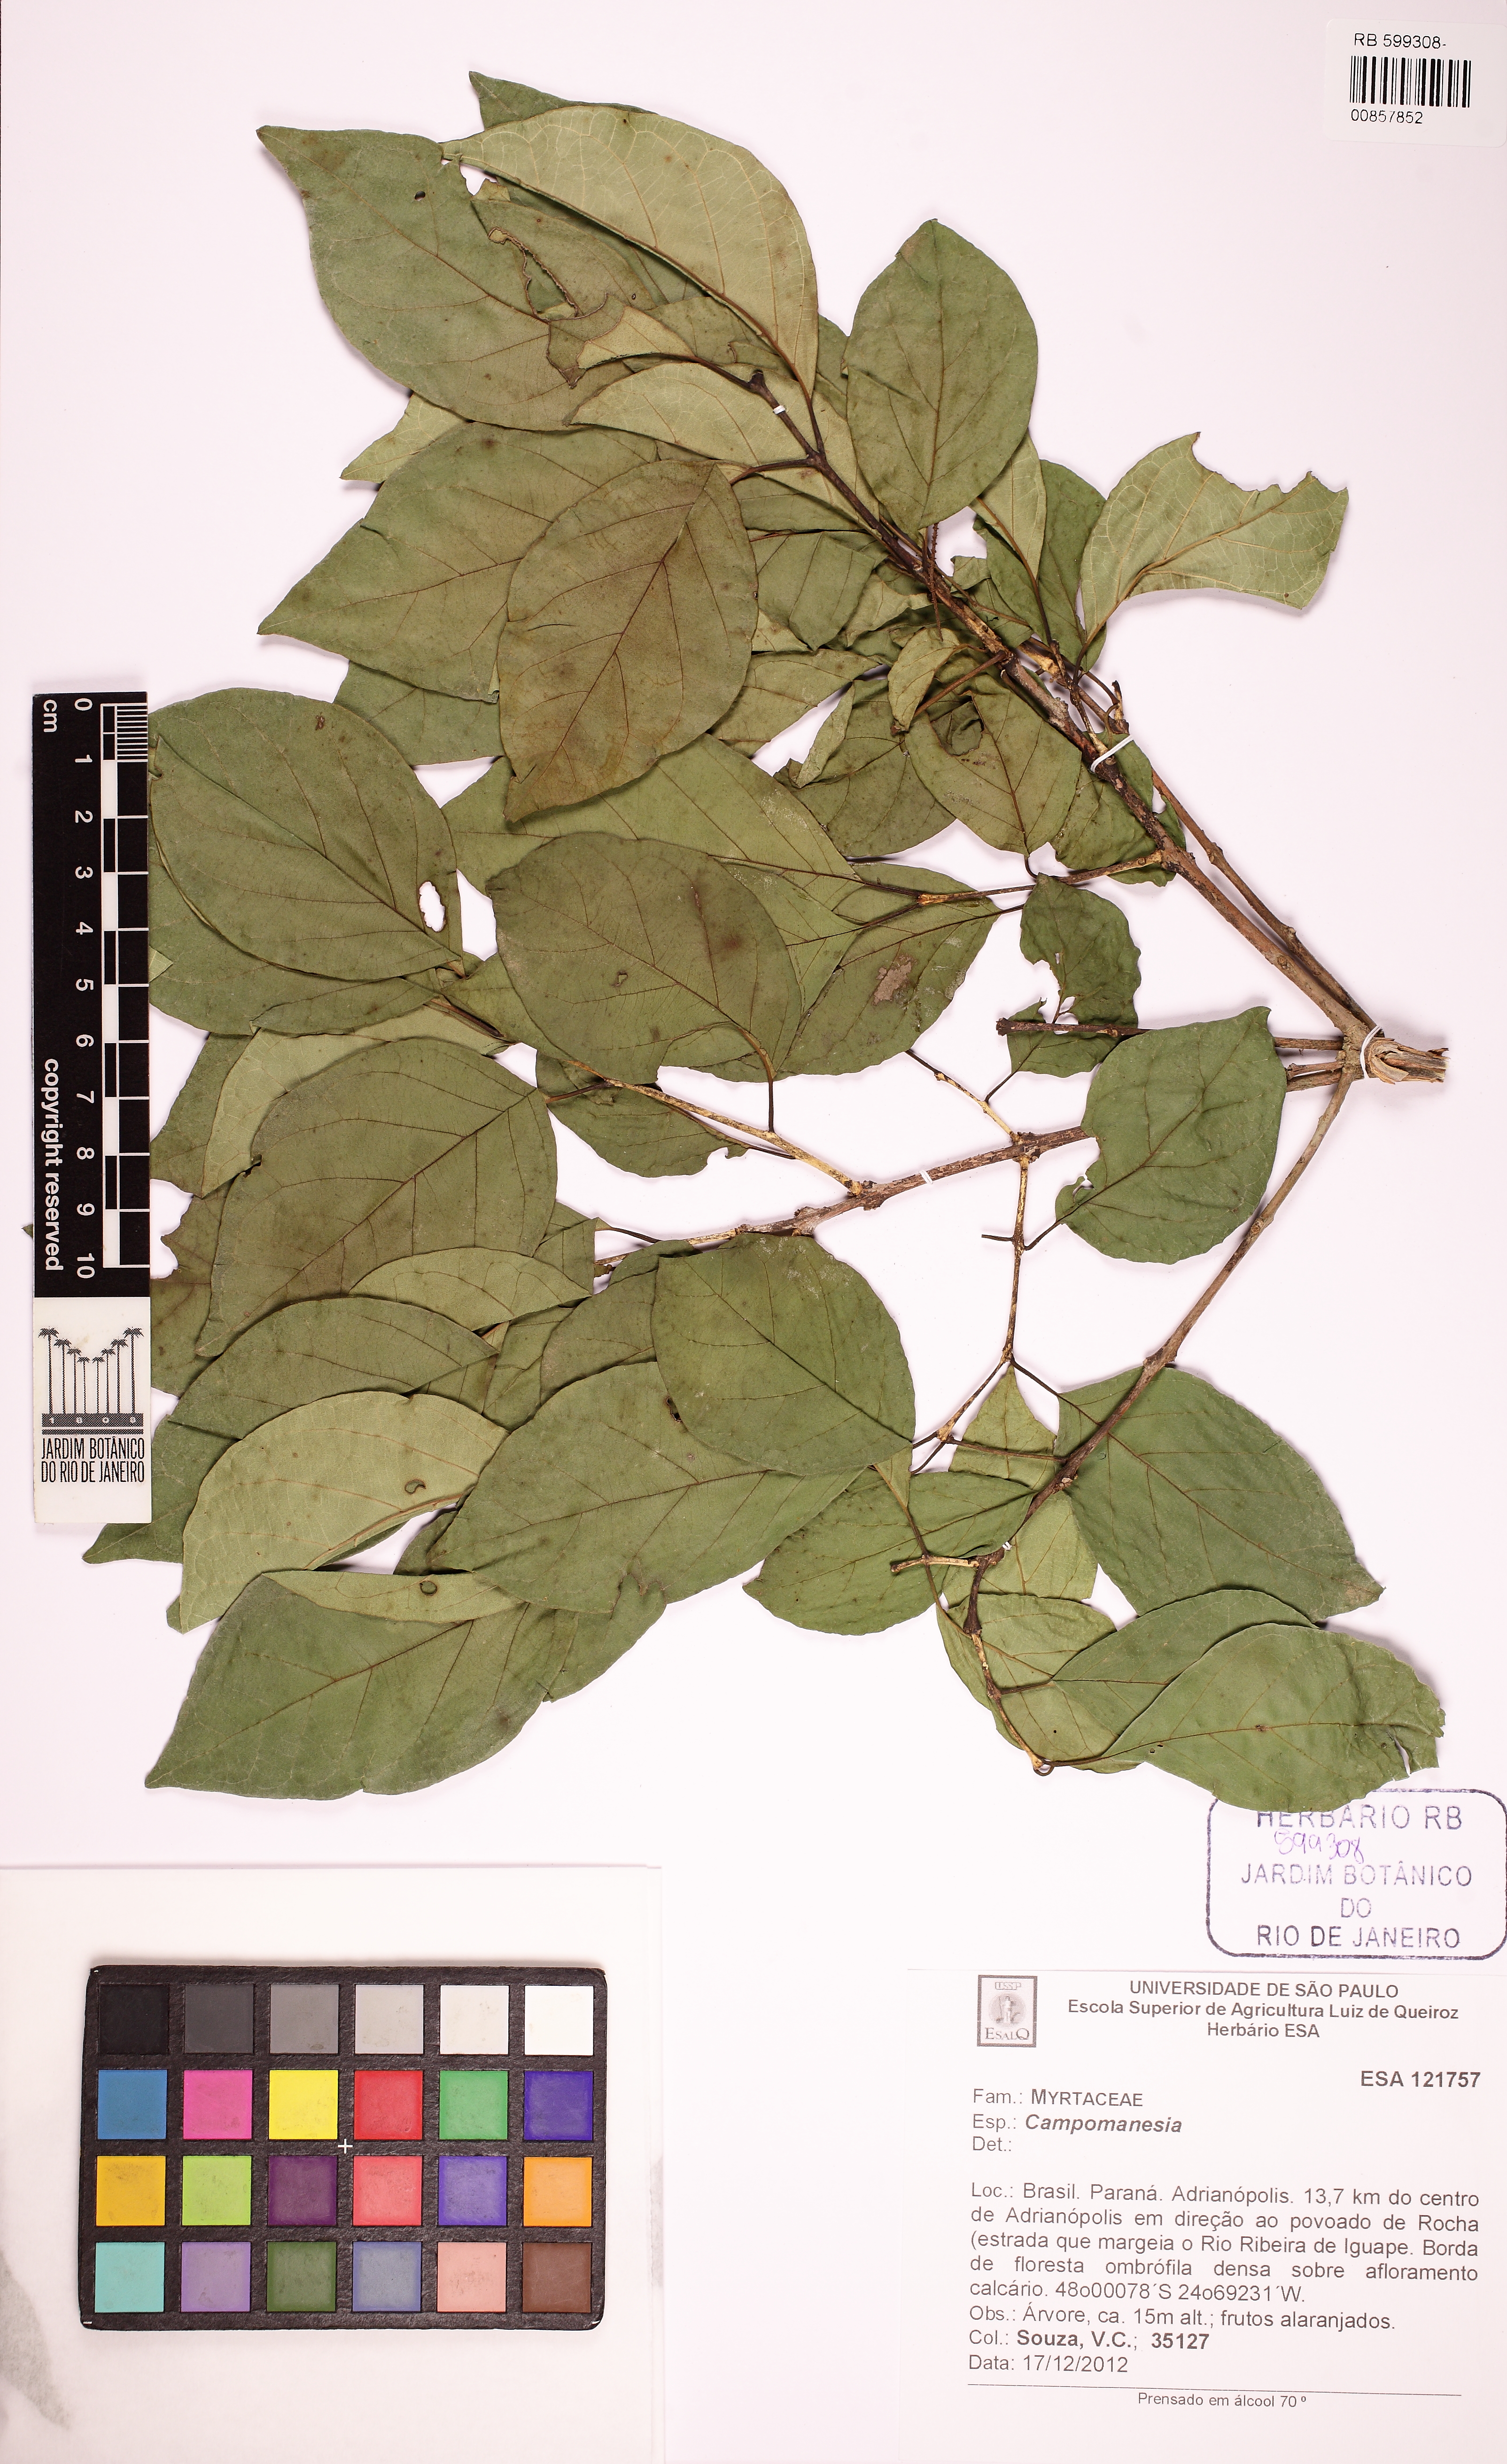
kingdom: Plantae
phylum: Tracheophyta
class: Magnoliopsida
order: Myrtales
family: Myrtaceae
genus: Campomanesia
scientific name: Campomanesia xanthocarpa
